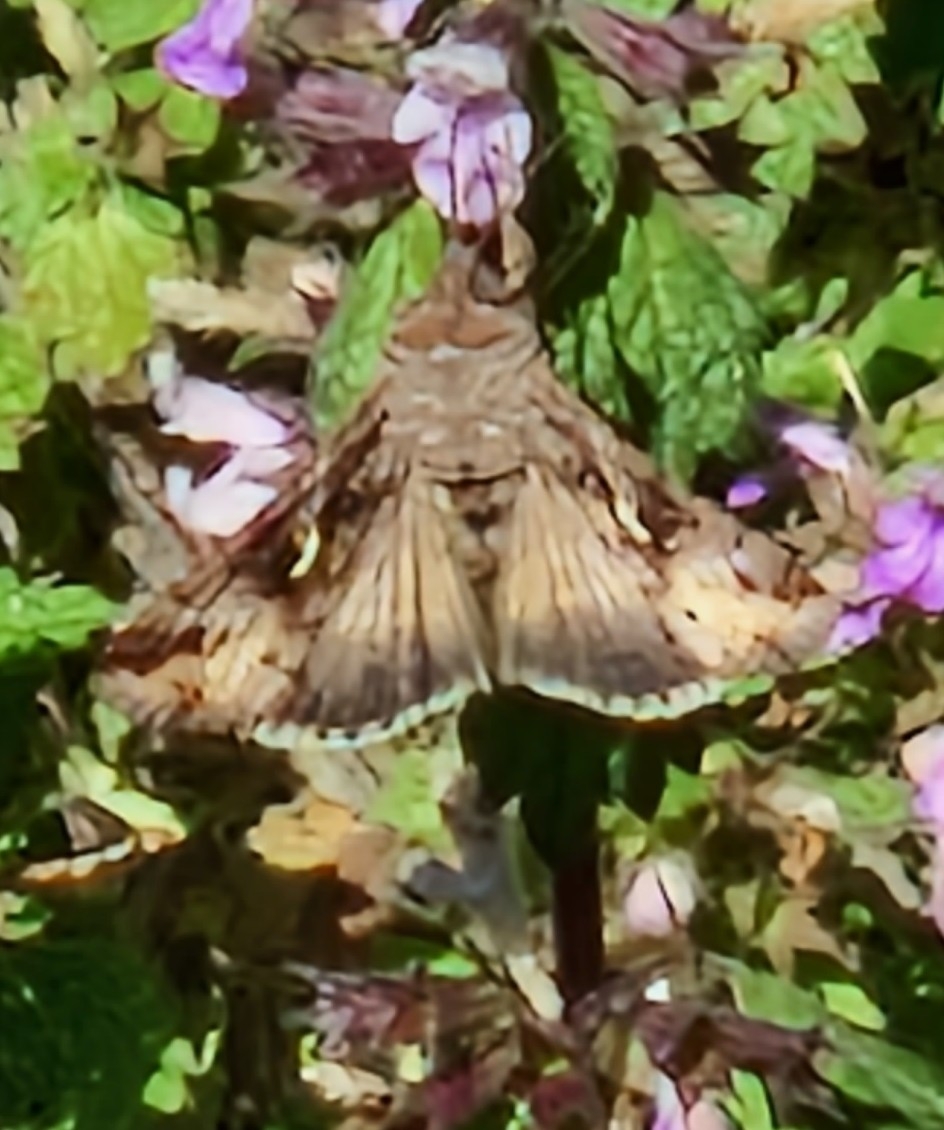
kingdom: Animalia
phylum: Arthropoda
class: Insecta
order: Lepidoptera
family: Noctuidae
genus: Autographa
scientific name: Autographa gamma
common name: Gammaugle
